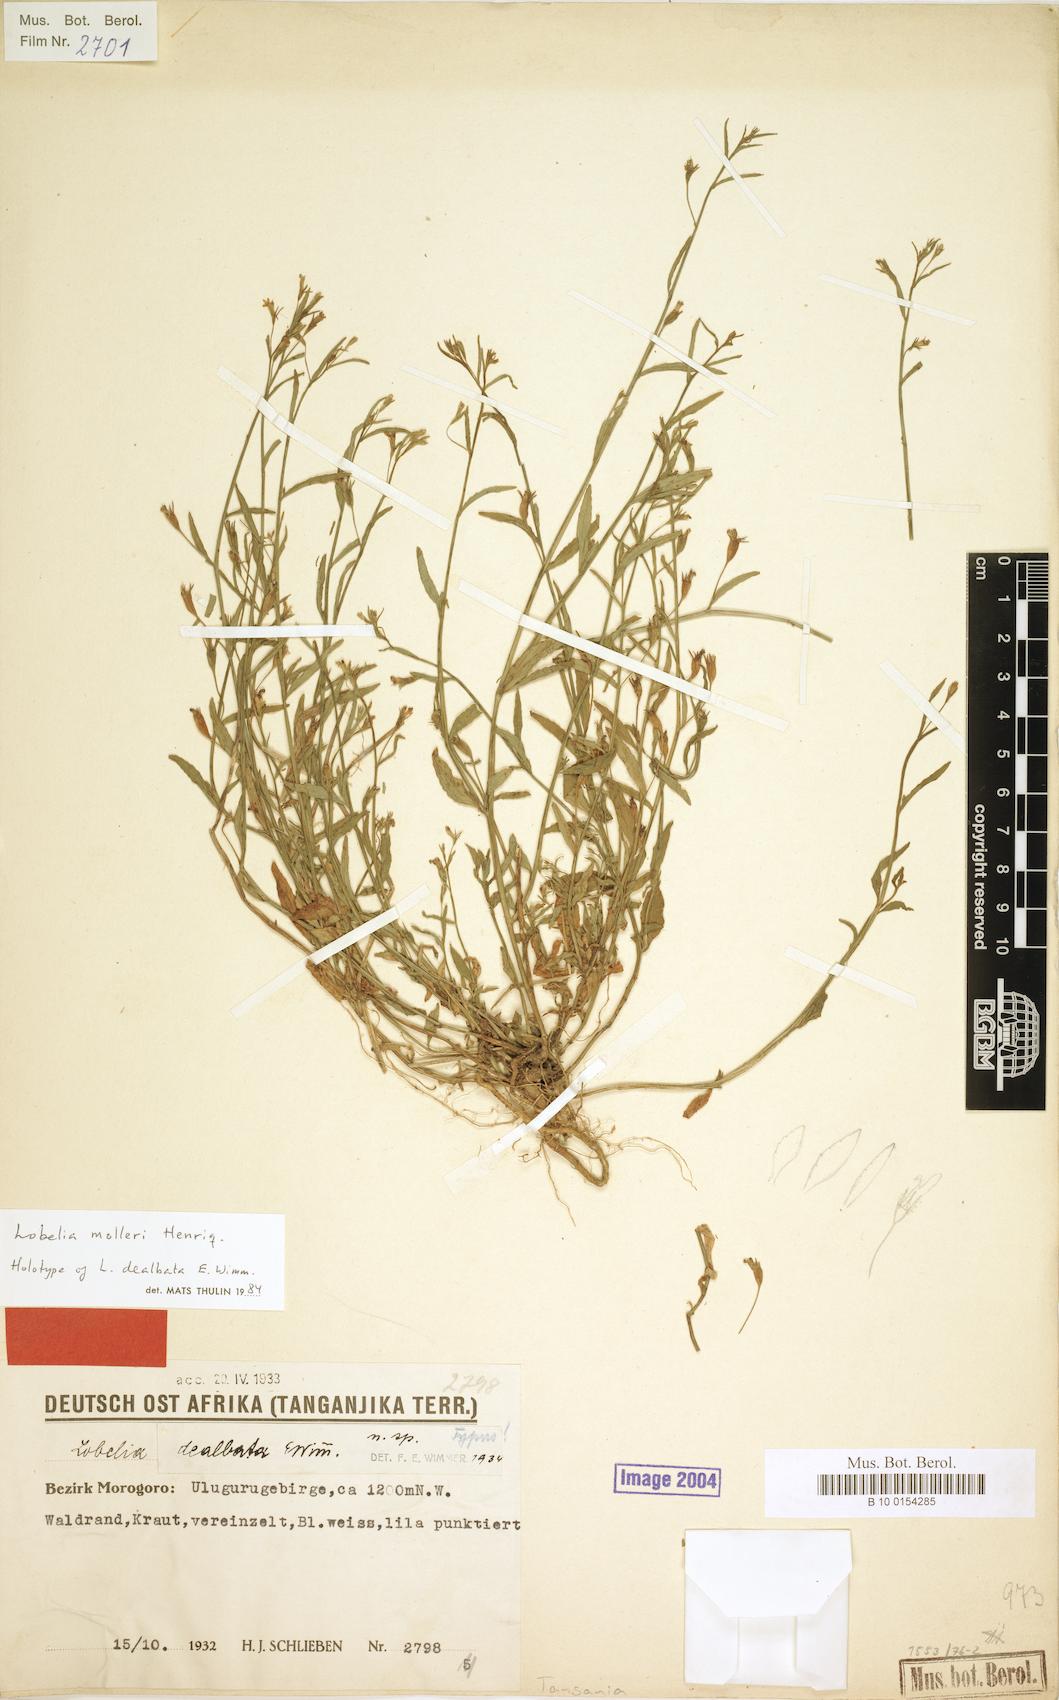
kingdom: Plantae
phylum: Tracheophyta
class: Magnoliopsida
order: Asterales
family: Campanulaceae
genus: Lobelia
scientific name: Lobelia molleri
